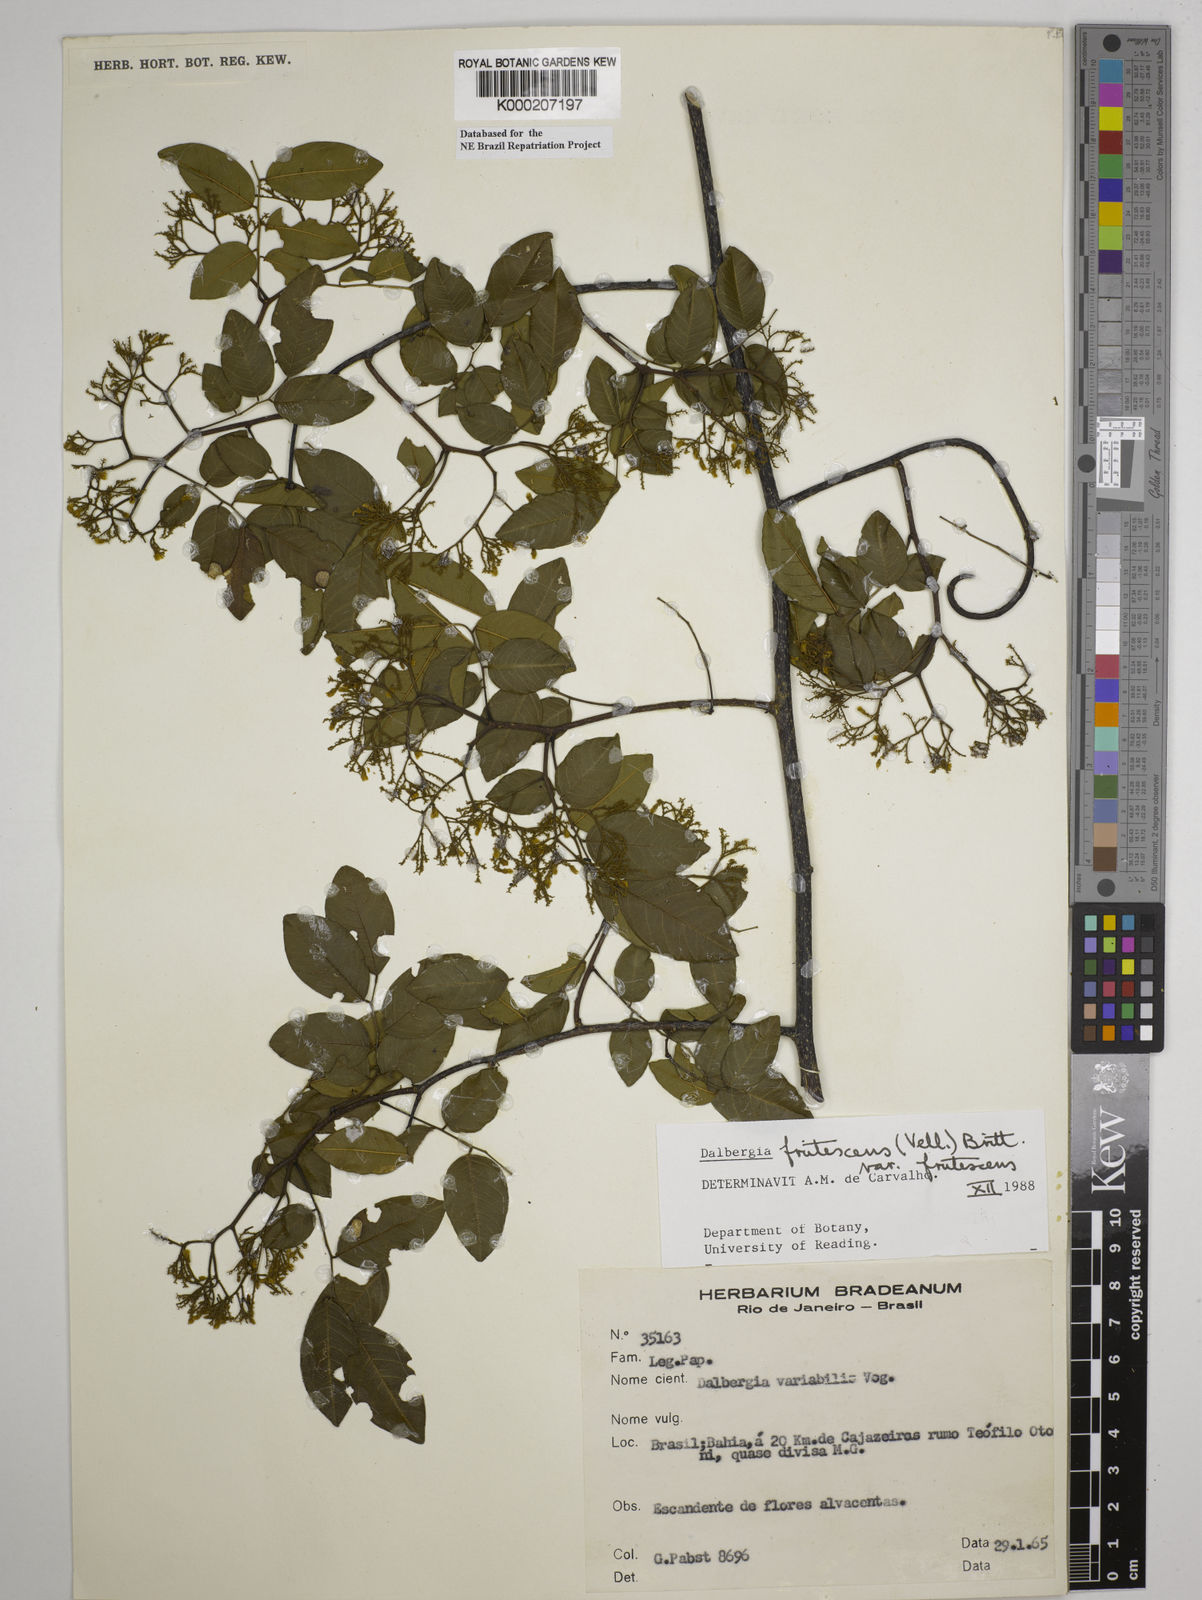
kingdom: Plantae
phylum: Tracheophyta
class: Magnoliopsida
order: Fabales
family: Fabaceae
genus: Dalbergia
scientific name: Dalbergia frutescens
